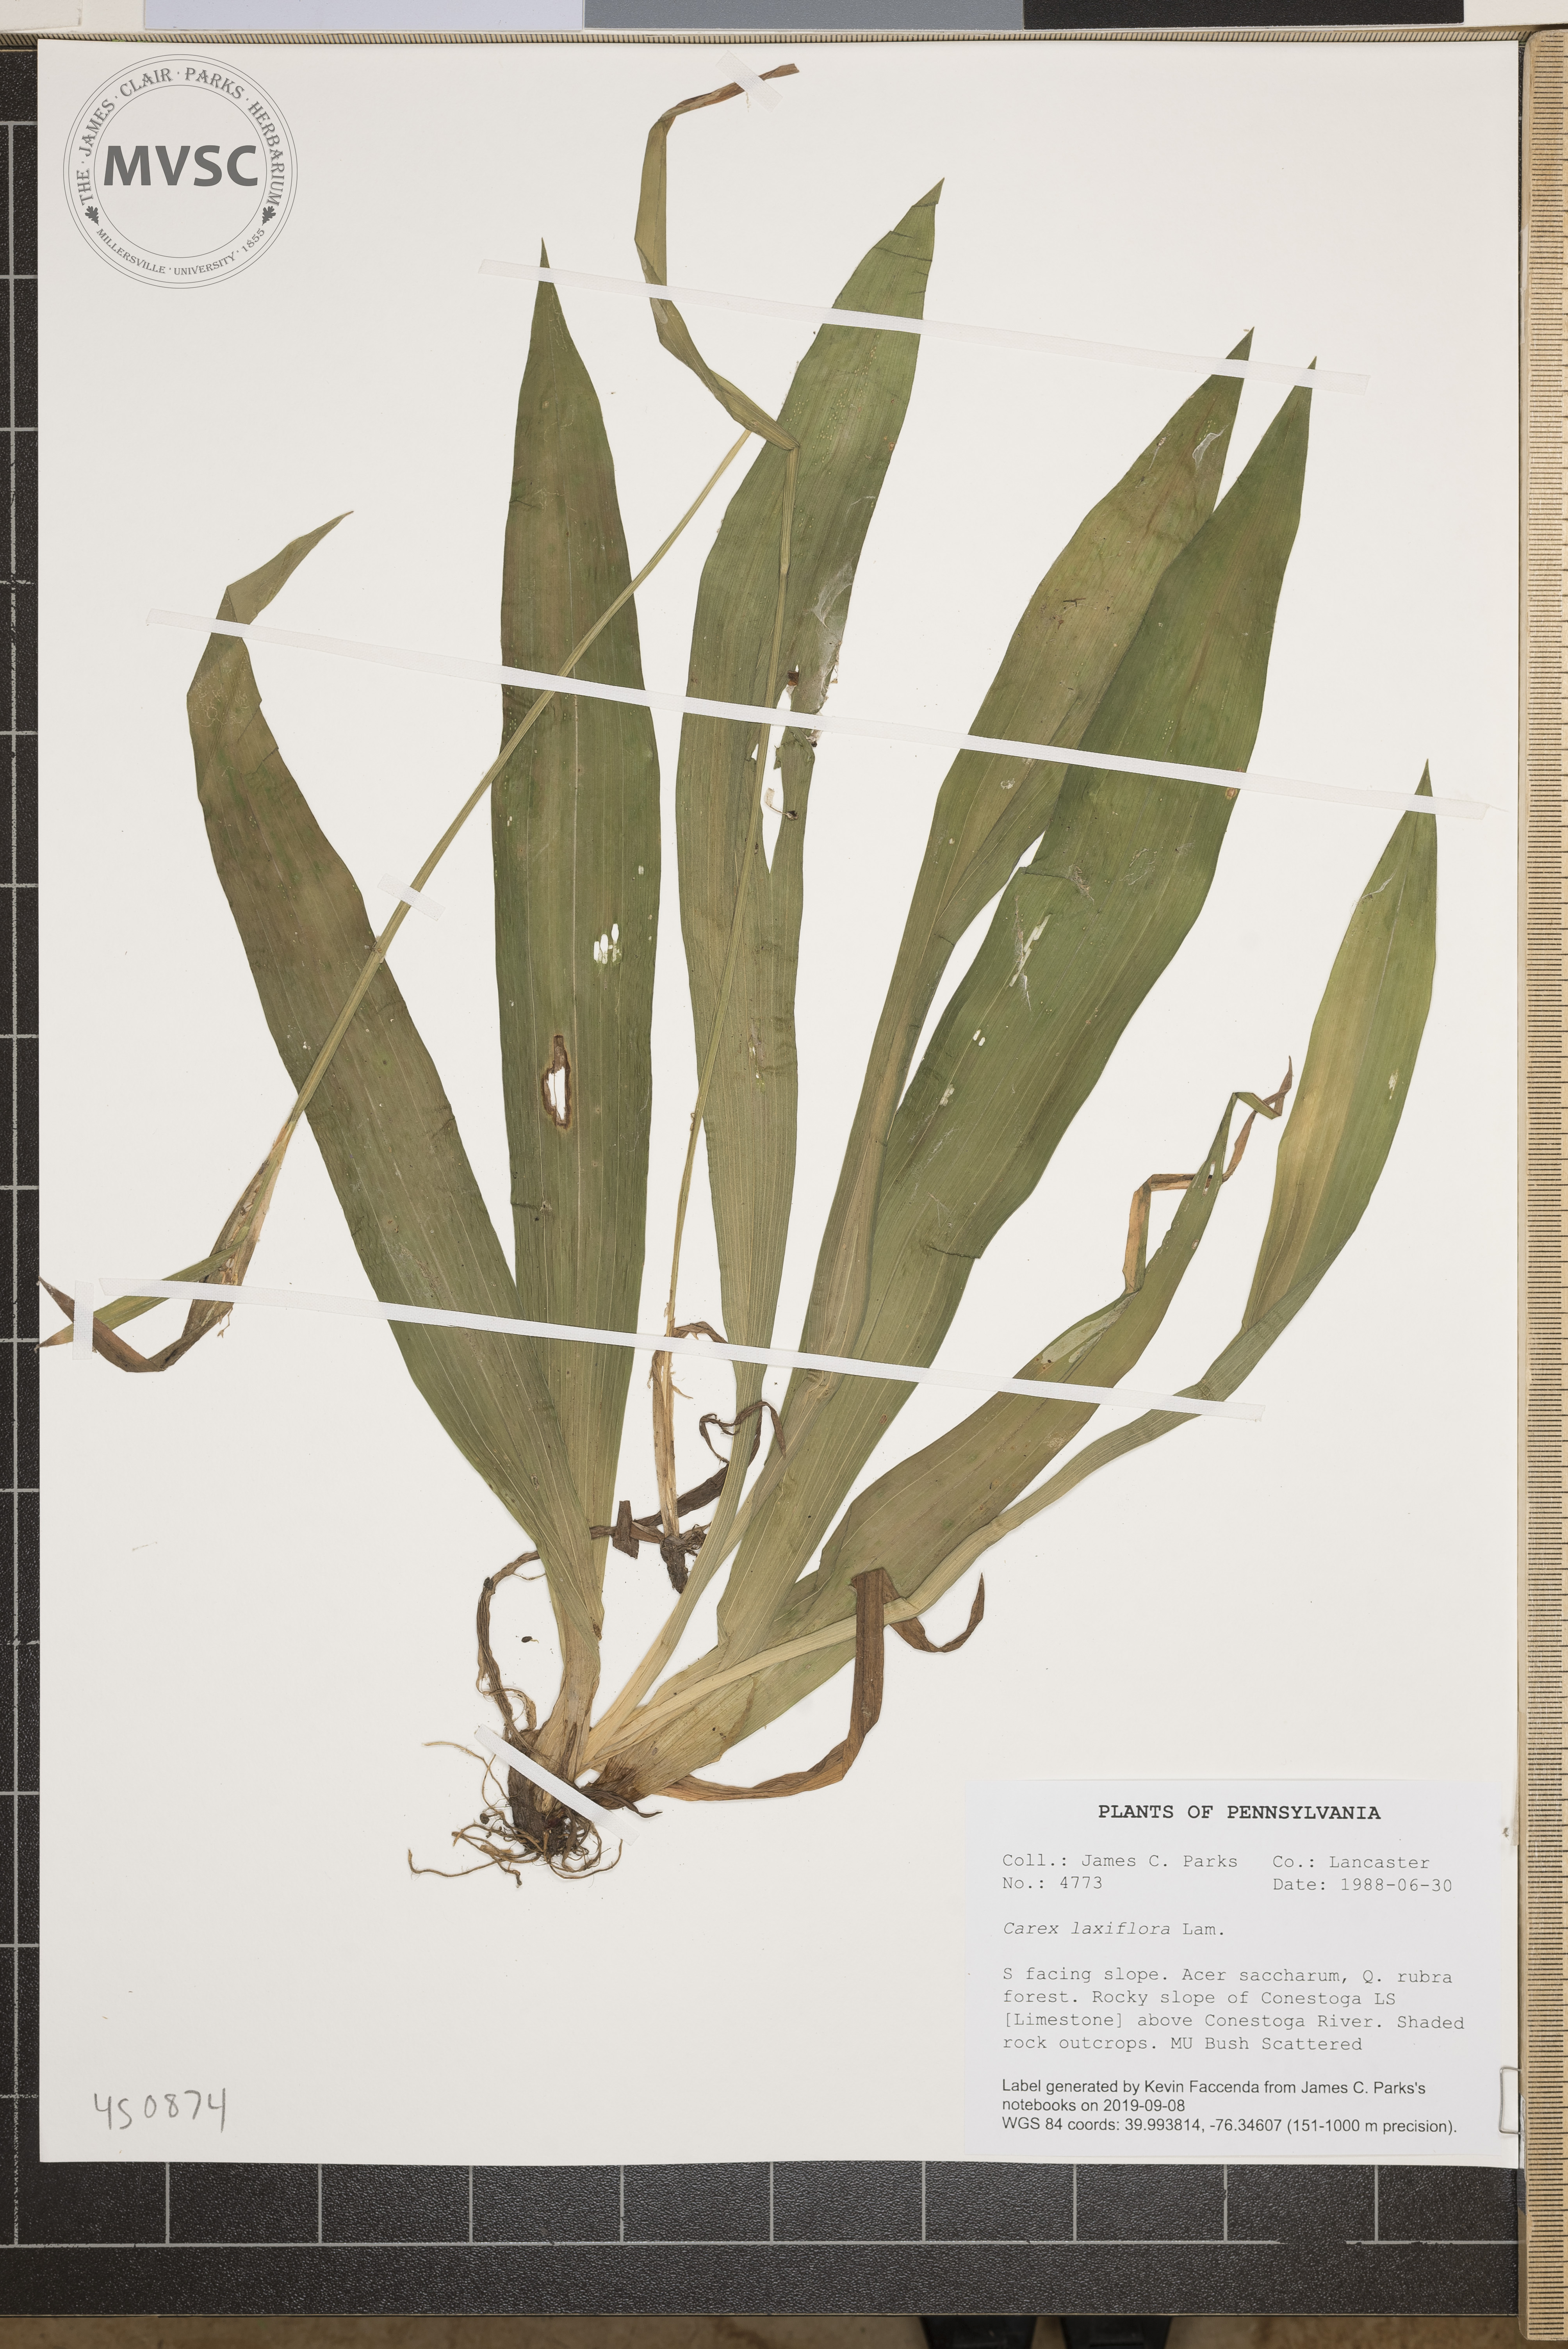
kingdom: Plantae
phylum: Tracheophyta
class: Liliopsida
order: Poales
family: Cyperaceae
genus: Carex
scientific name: Carex laxiflora
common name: Beech wood sedge
